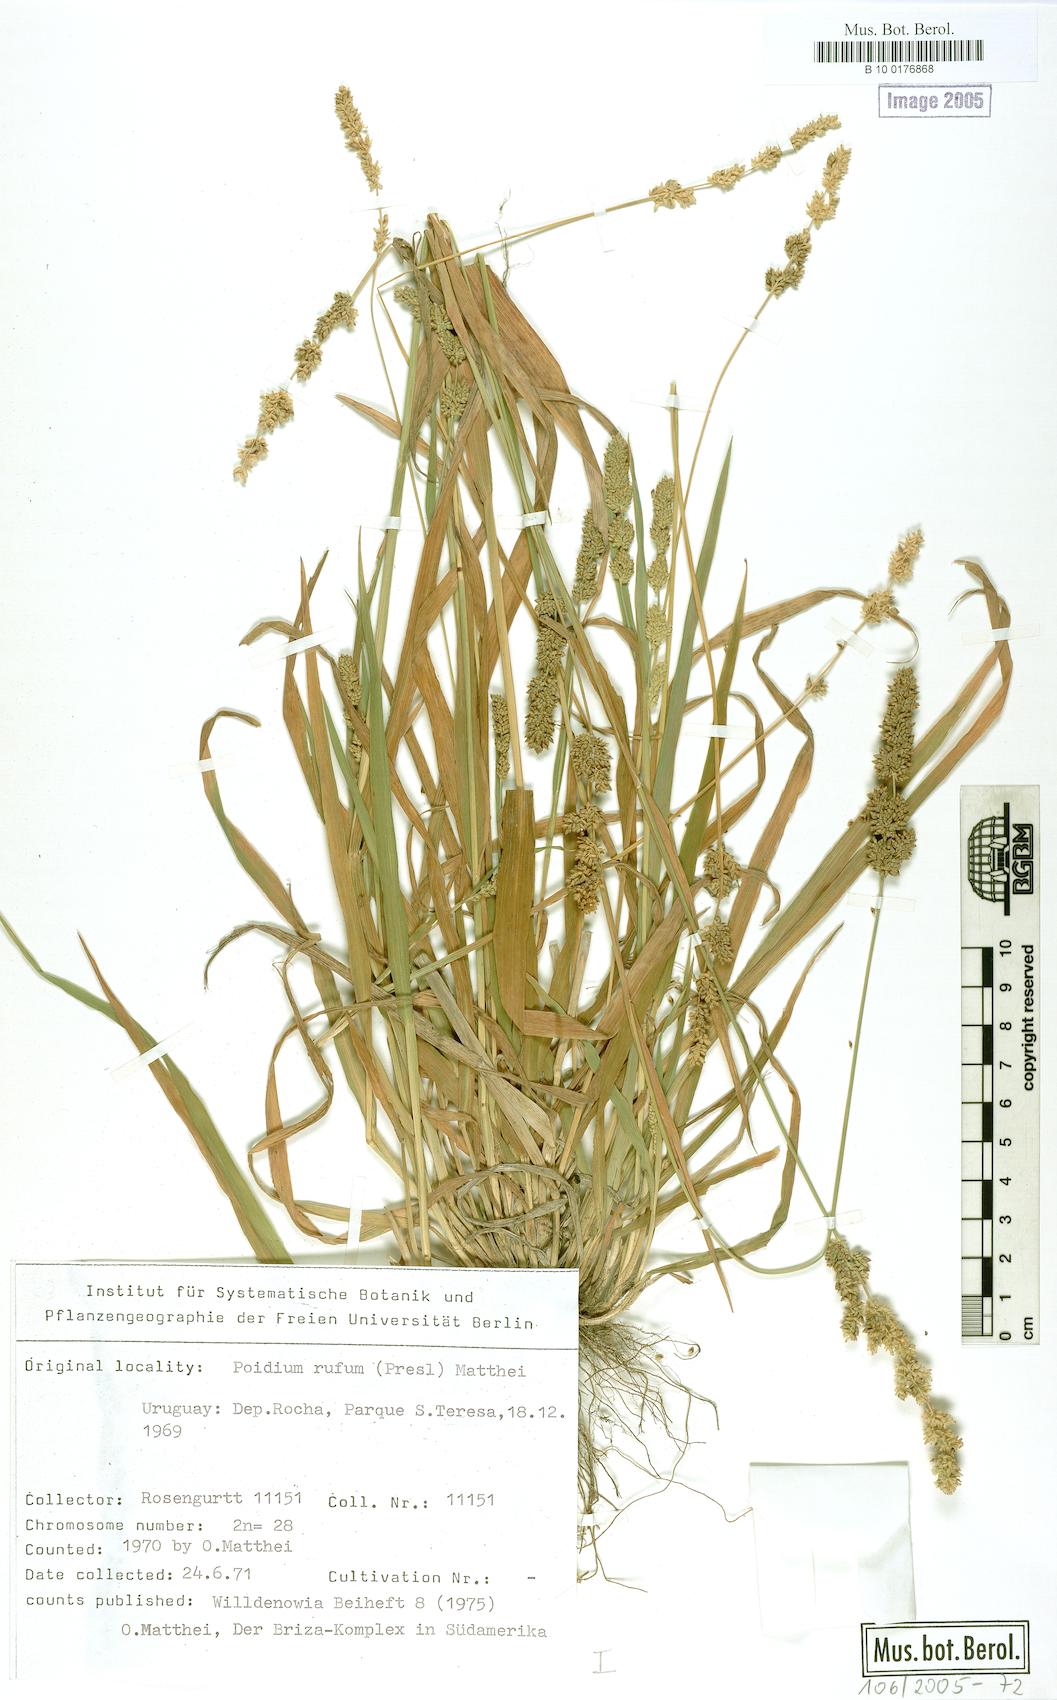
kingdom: Plantae
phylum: Tracheophyta
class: Liliopsida
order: Poales
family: Poaceae
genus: Lombardochloa
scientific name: Lombardochloa rufa
